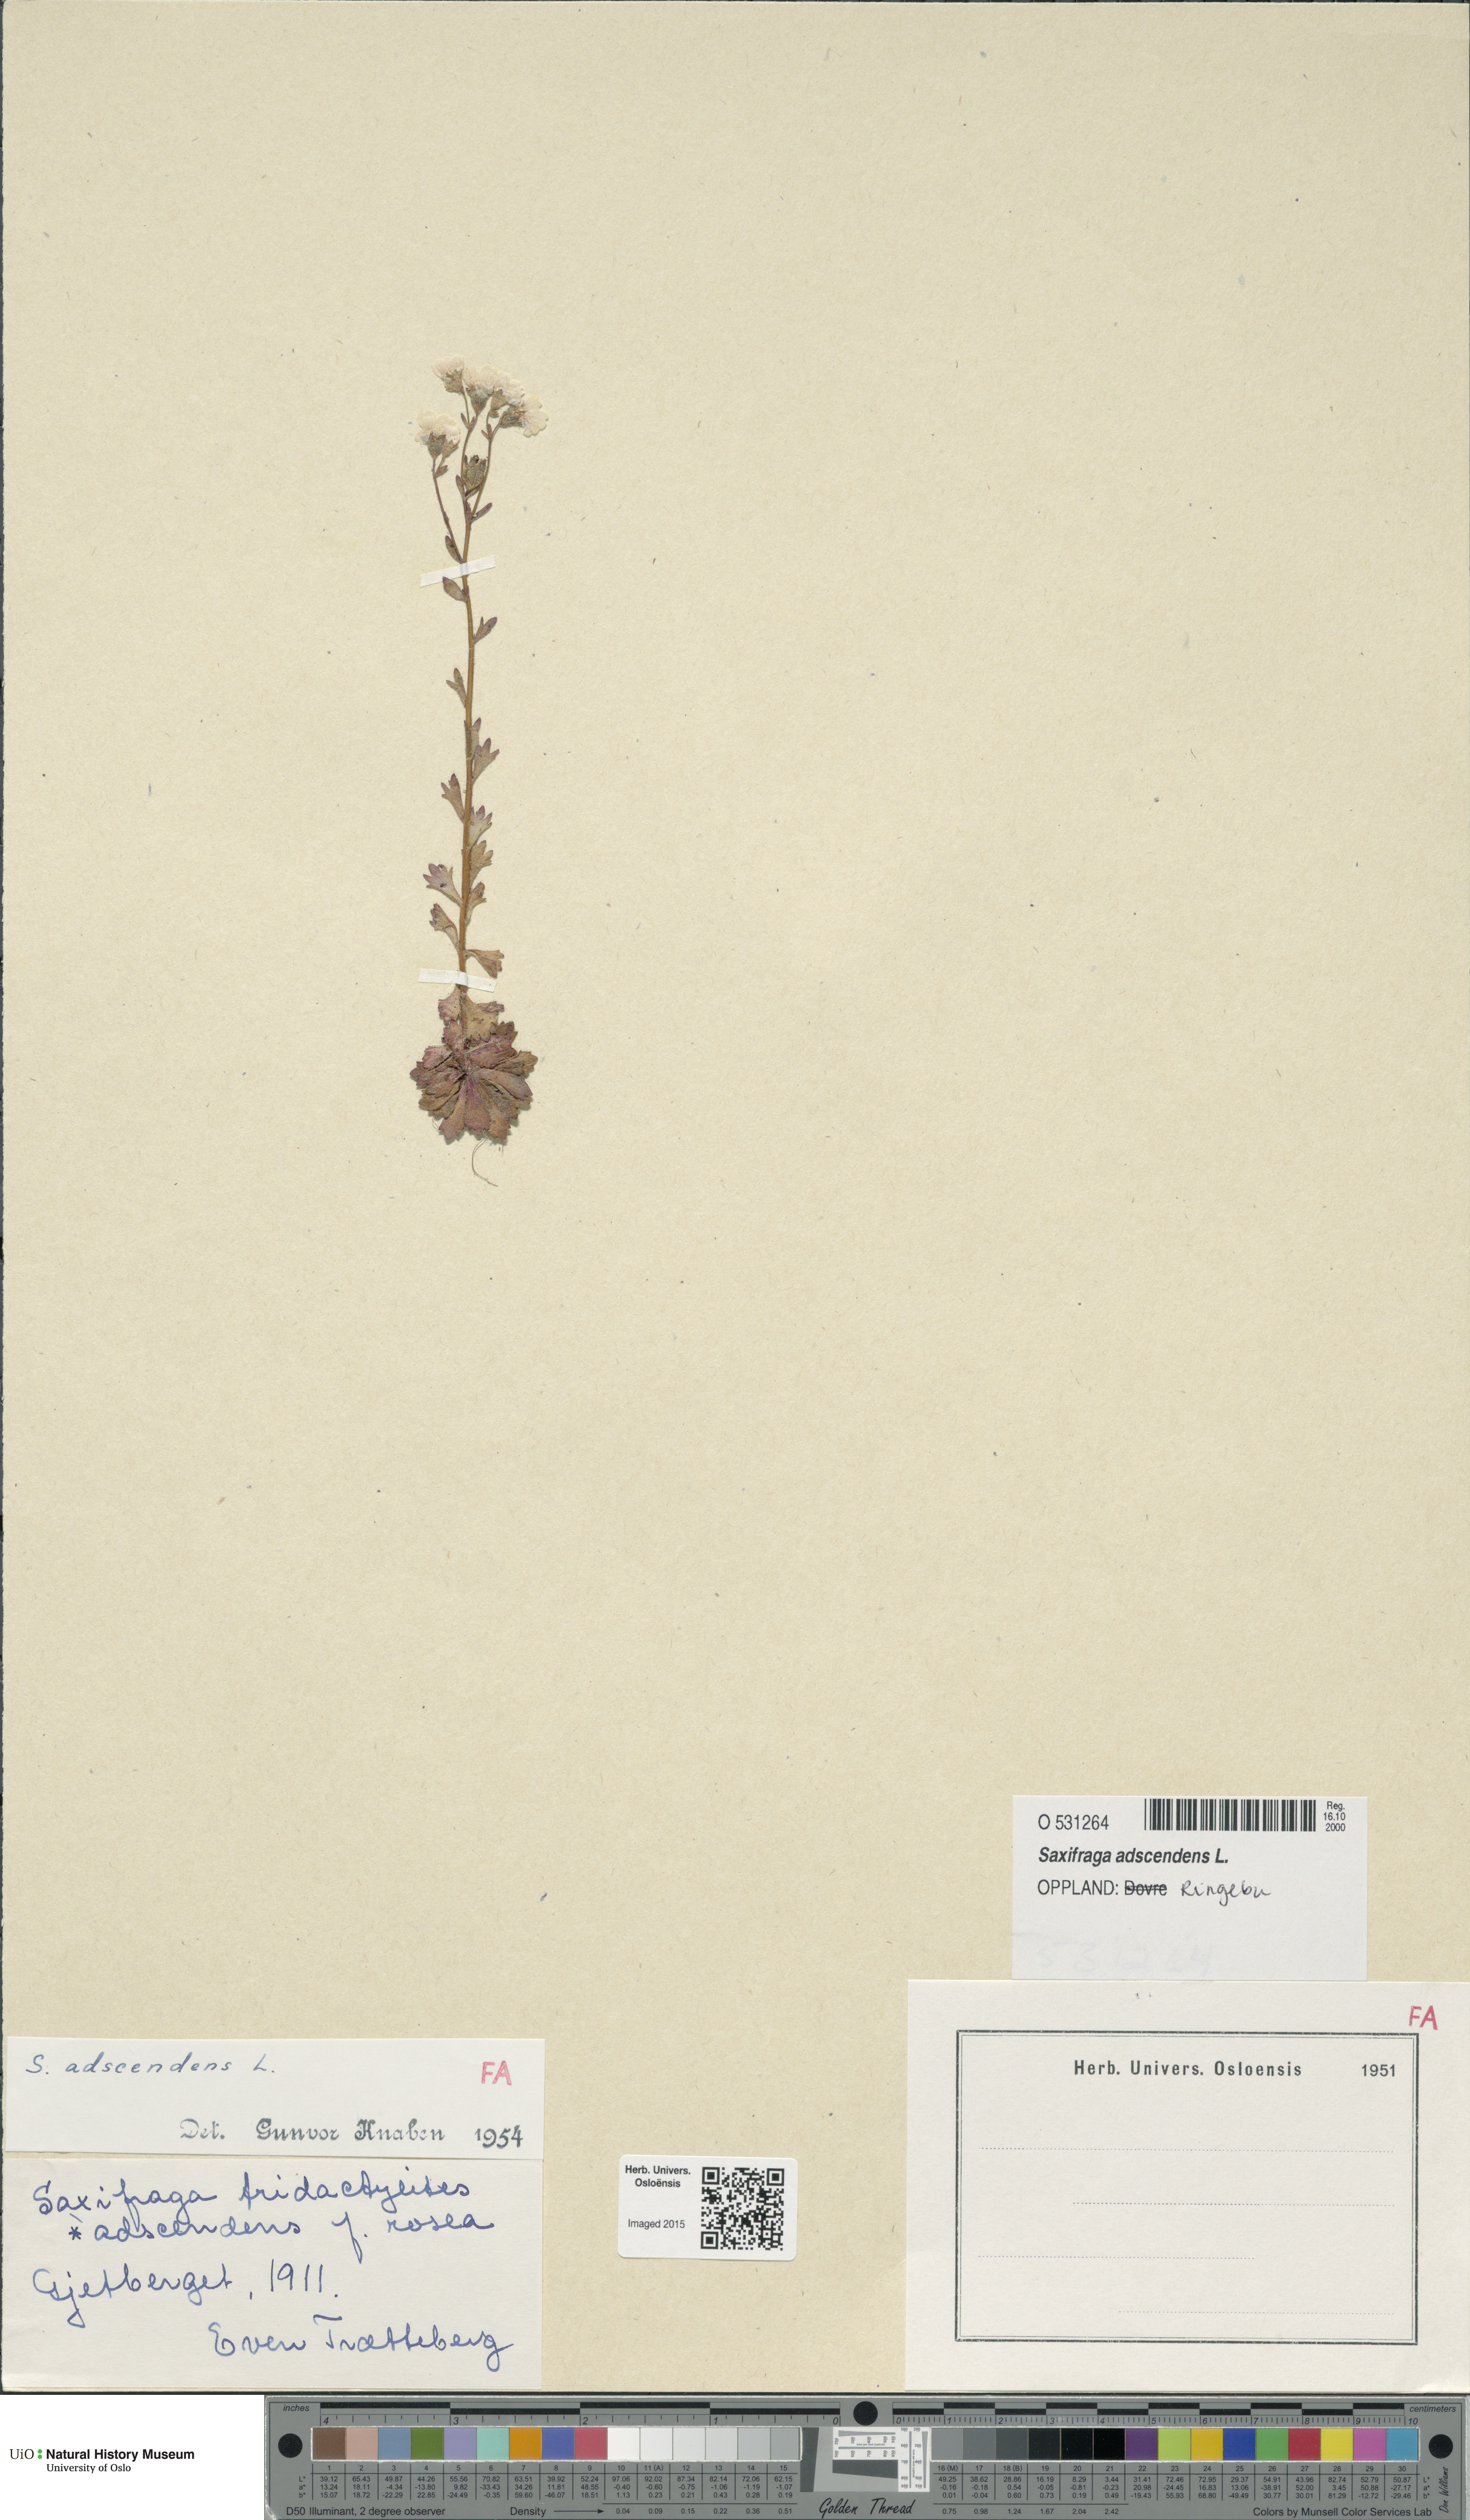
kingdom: Plantae
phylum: Tracheophyta
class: Magnoliopsida
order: Saxifragales
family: Saxifragaceae
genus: Saxifraga
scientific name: Saxifraga adscendens
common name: Ascending saxifrage
